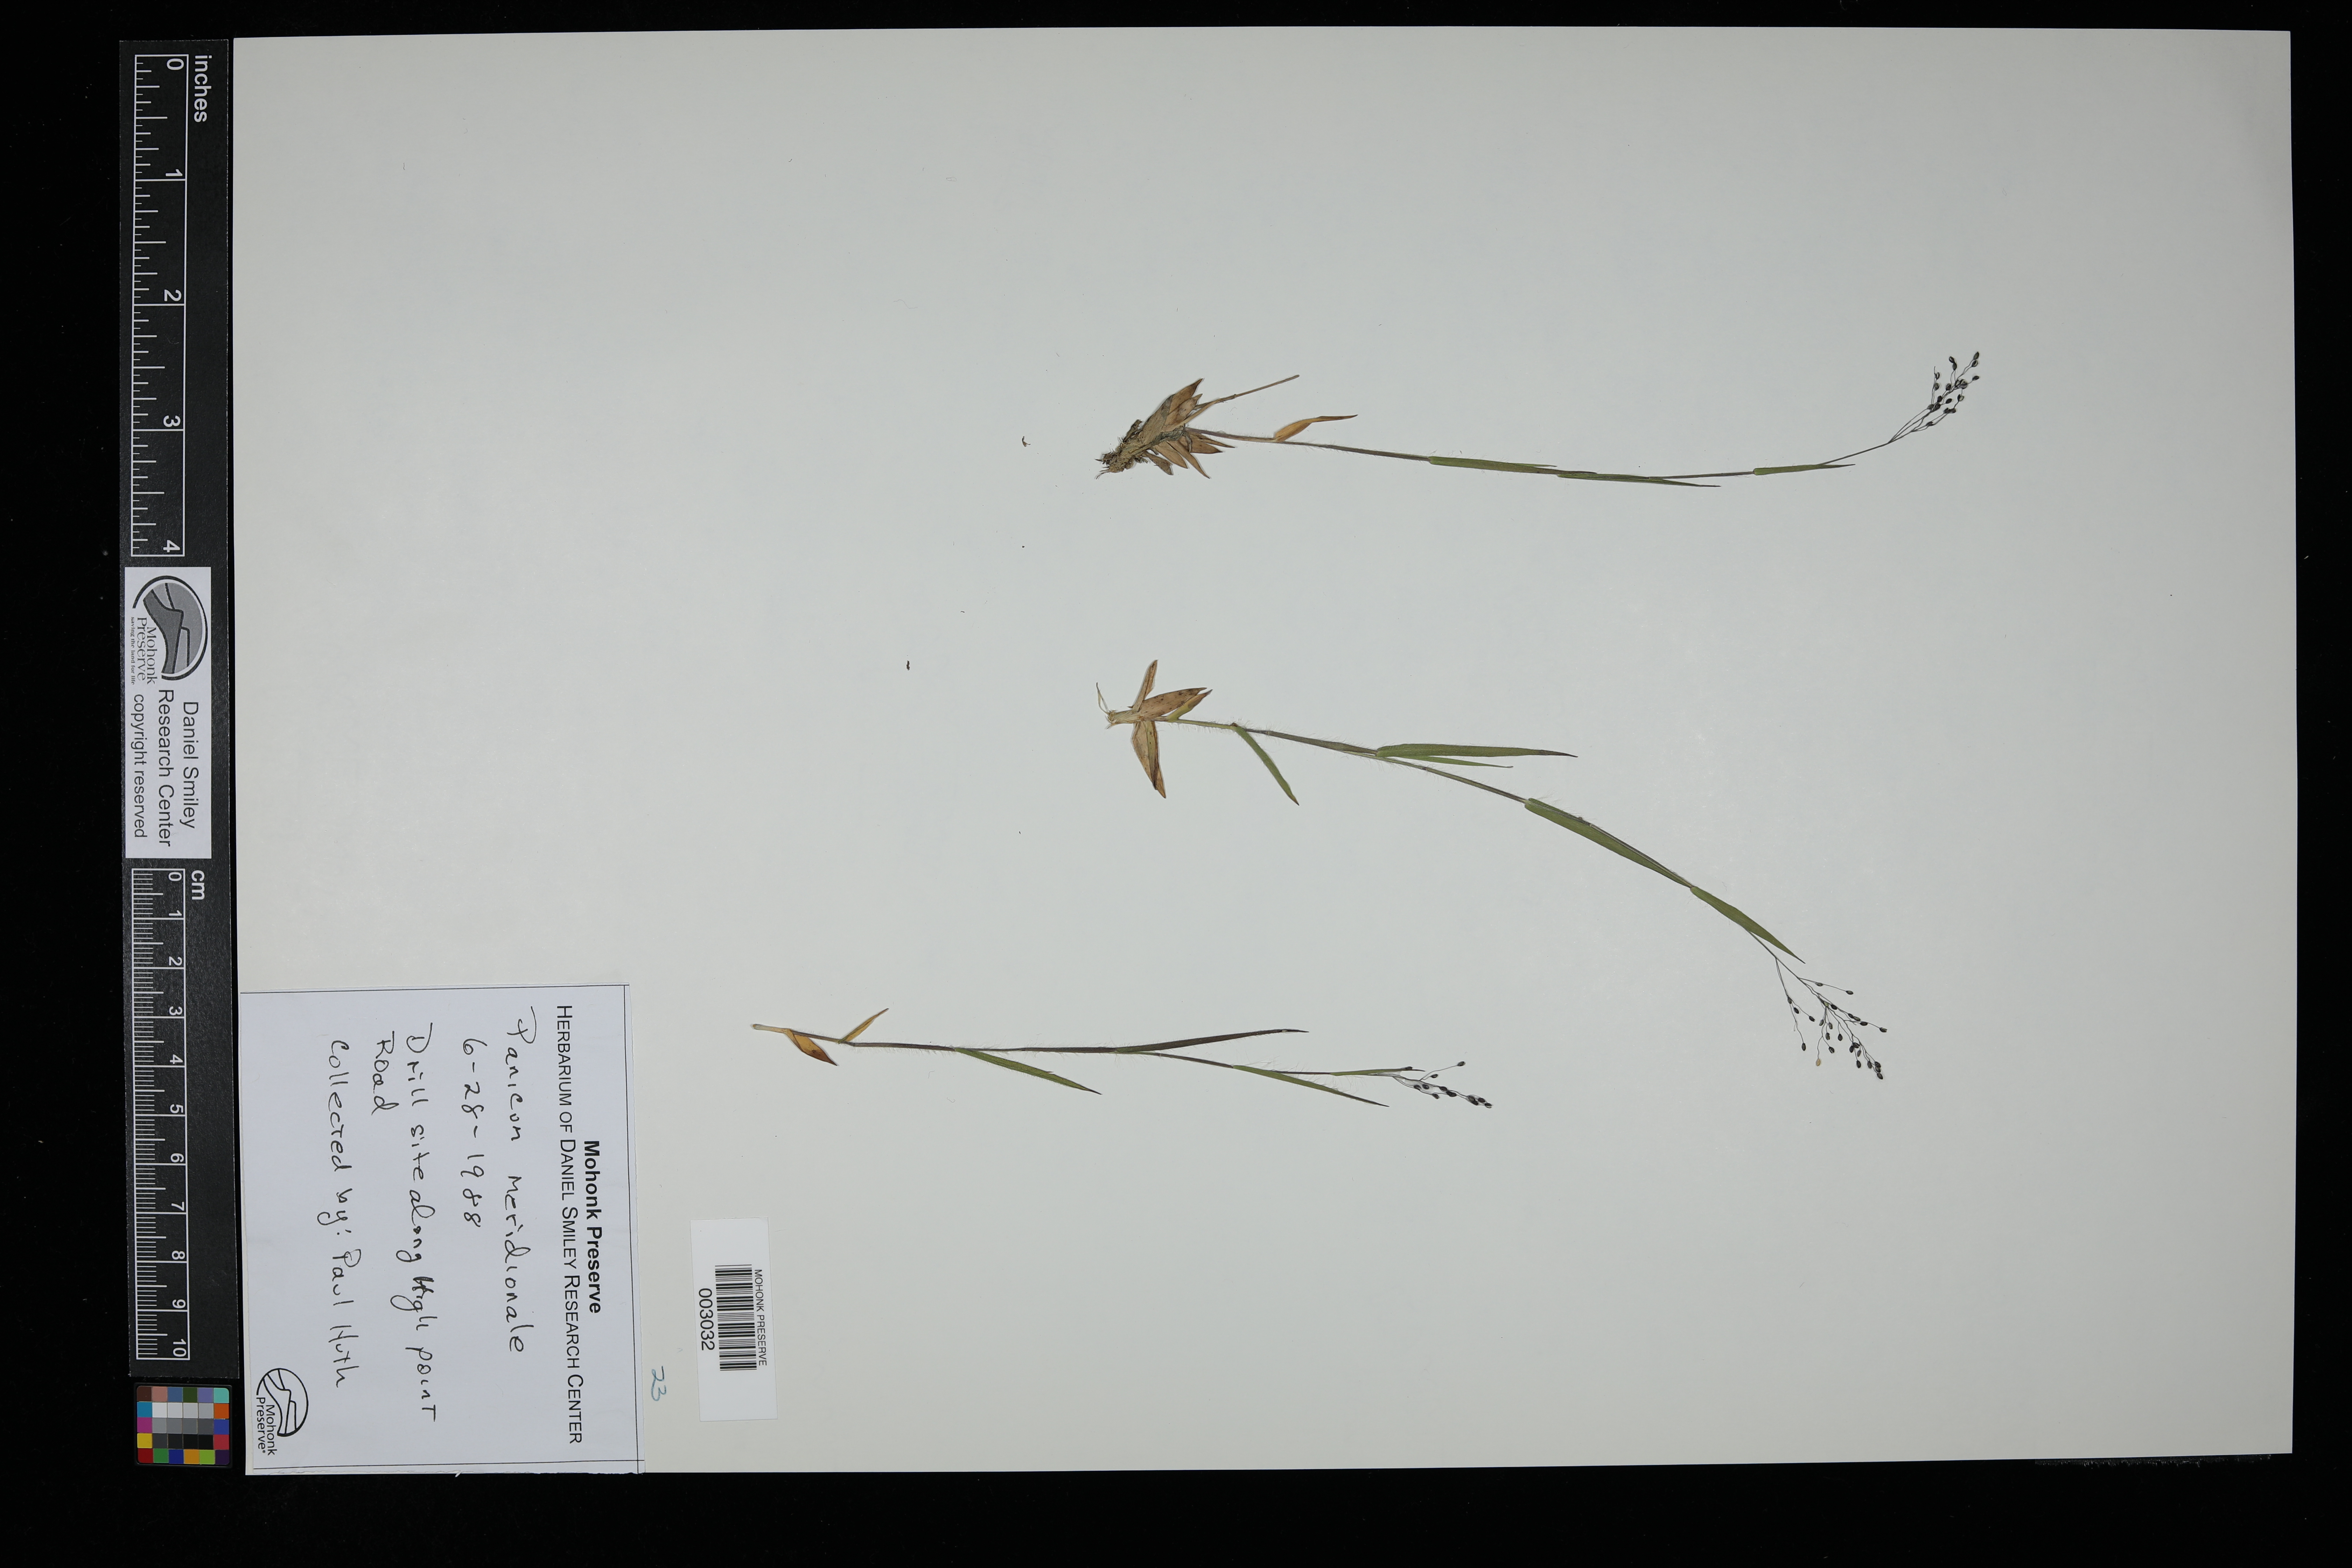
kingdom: Plantae
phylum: Tracheophyta
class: Liliopsida
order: Poales
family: Poaceae
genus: Dichanthelium
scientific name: Dichanthelium acuminatum
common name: Hairy panic grass
